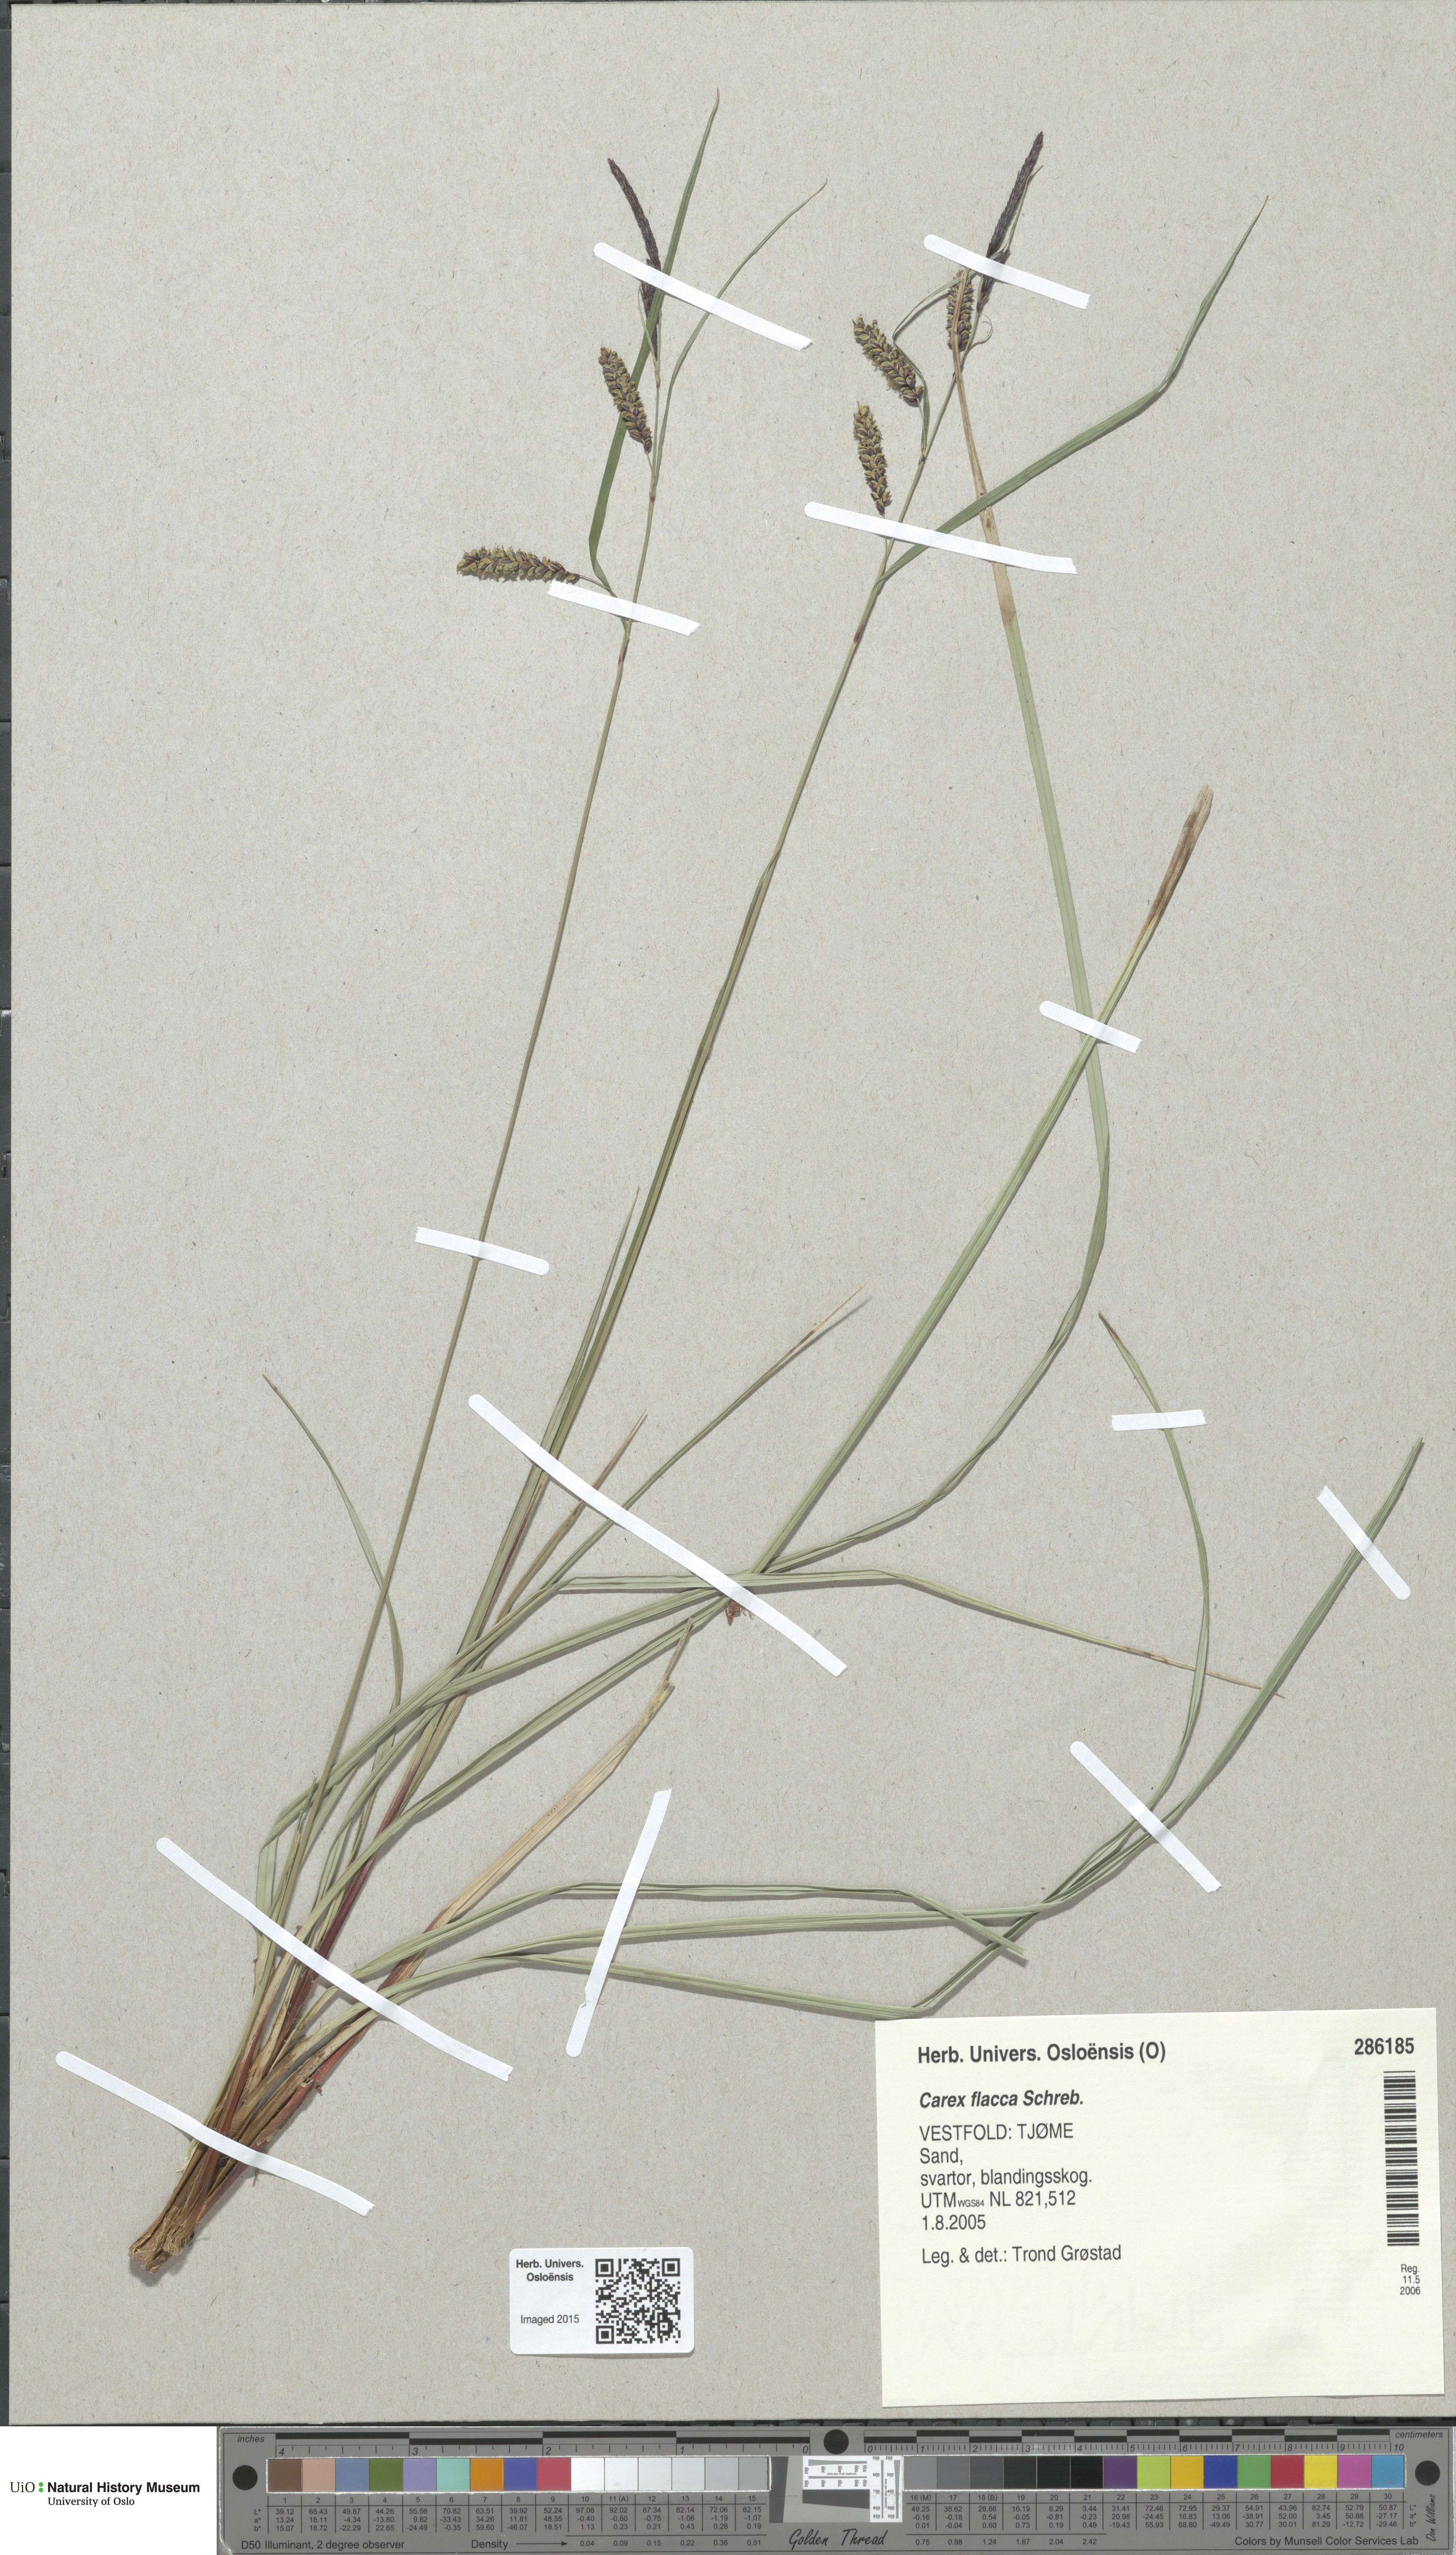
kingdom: Plantae
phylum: Tracheophyta
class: Liliopsida
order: Poales
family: Cyperaceae
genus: Carex
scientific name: Carex flacca
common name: Glaucous sedge
